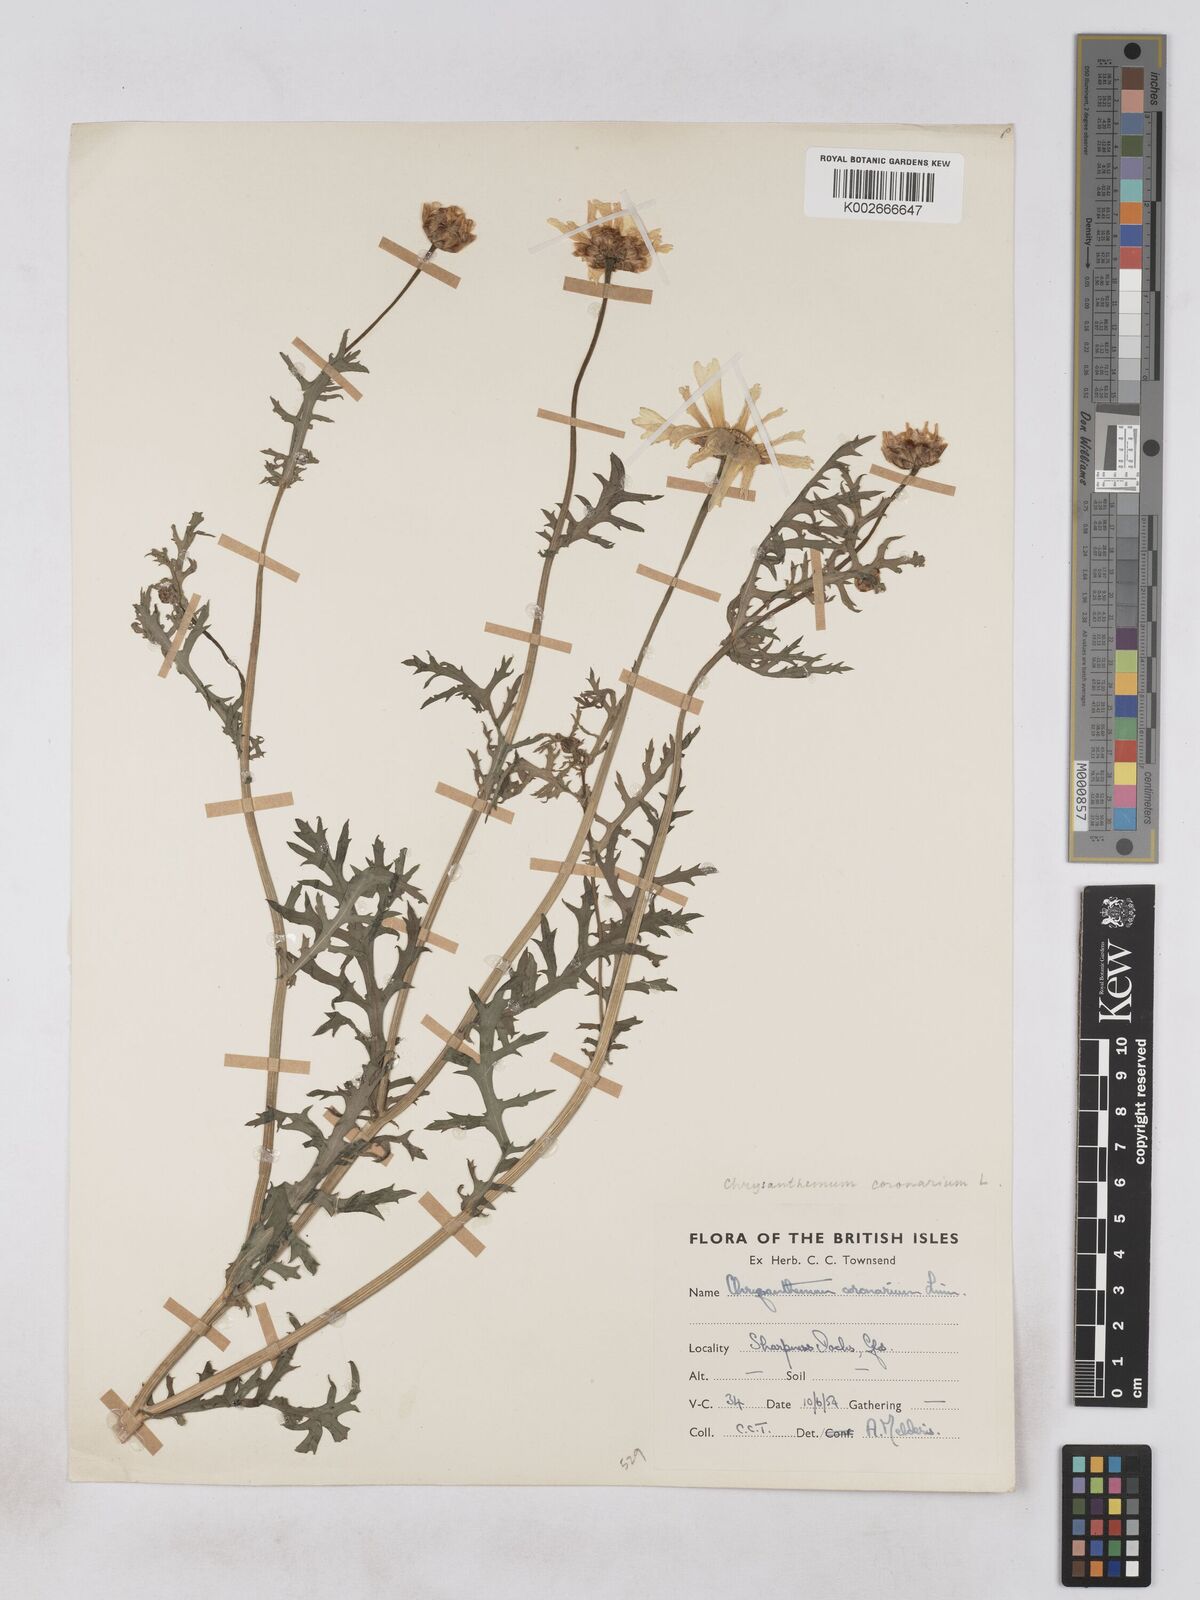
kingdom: Plantae
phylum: Tracheophyta
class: Magnoliopsida
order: Asterales
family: Asteraceae
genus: Glebionis
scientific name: Glebionis coronaria
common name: Crowndaisy
